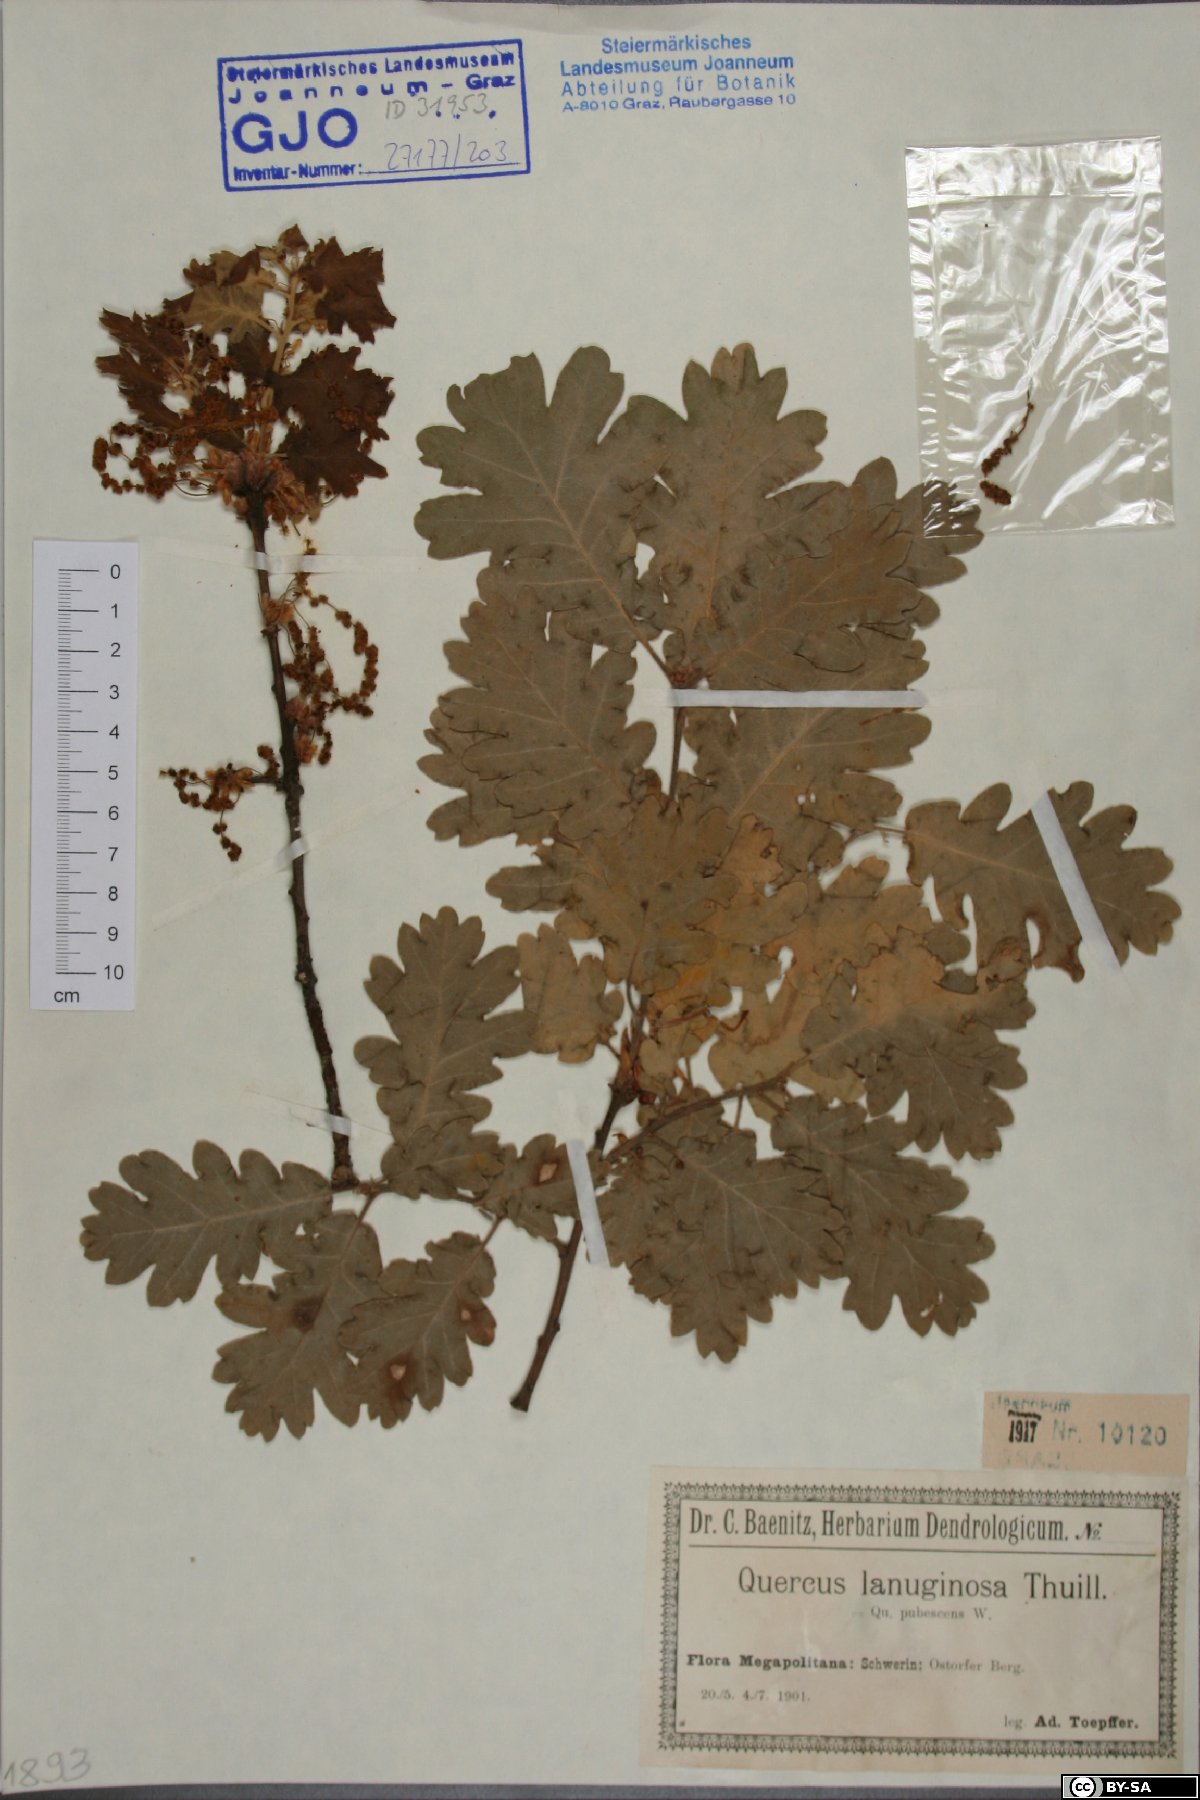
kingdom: Plantae
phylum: Tracheophyta
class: Magnoliopsida
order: Fagales
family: Fagaceae
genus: Quercus
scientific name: Quercus pubescens
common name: Downy oak
